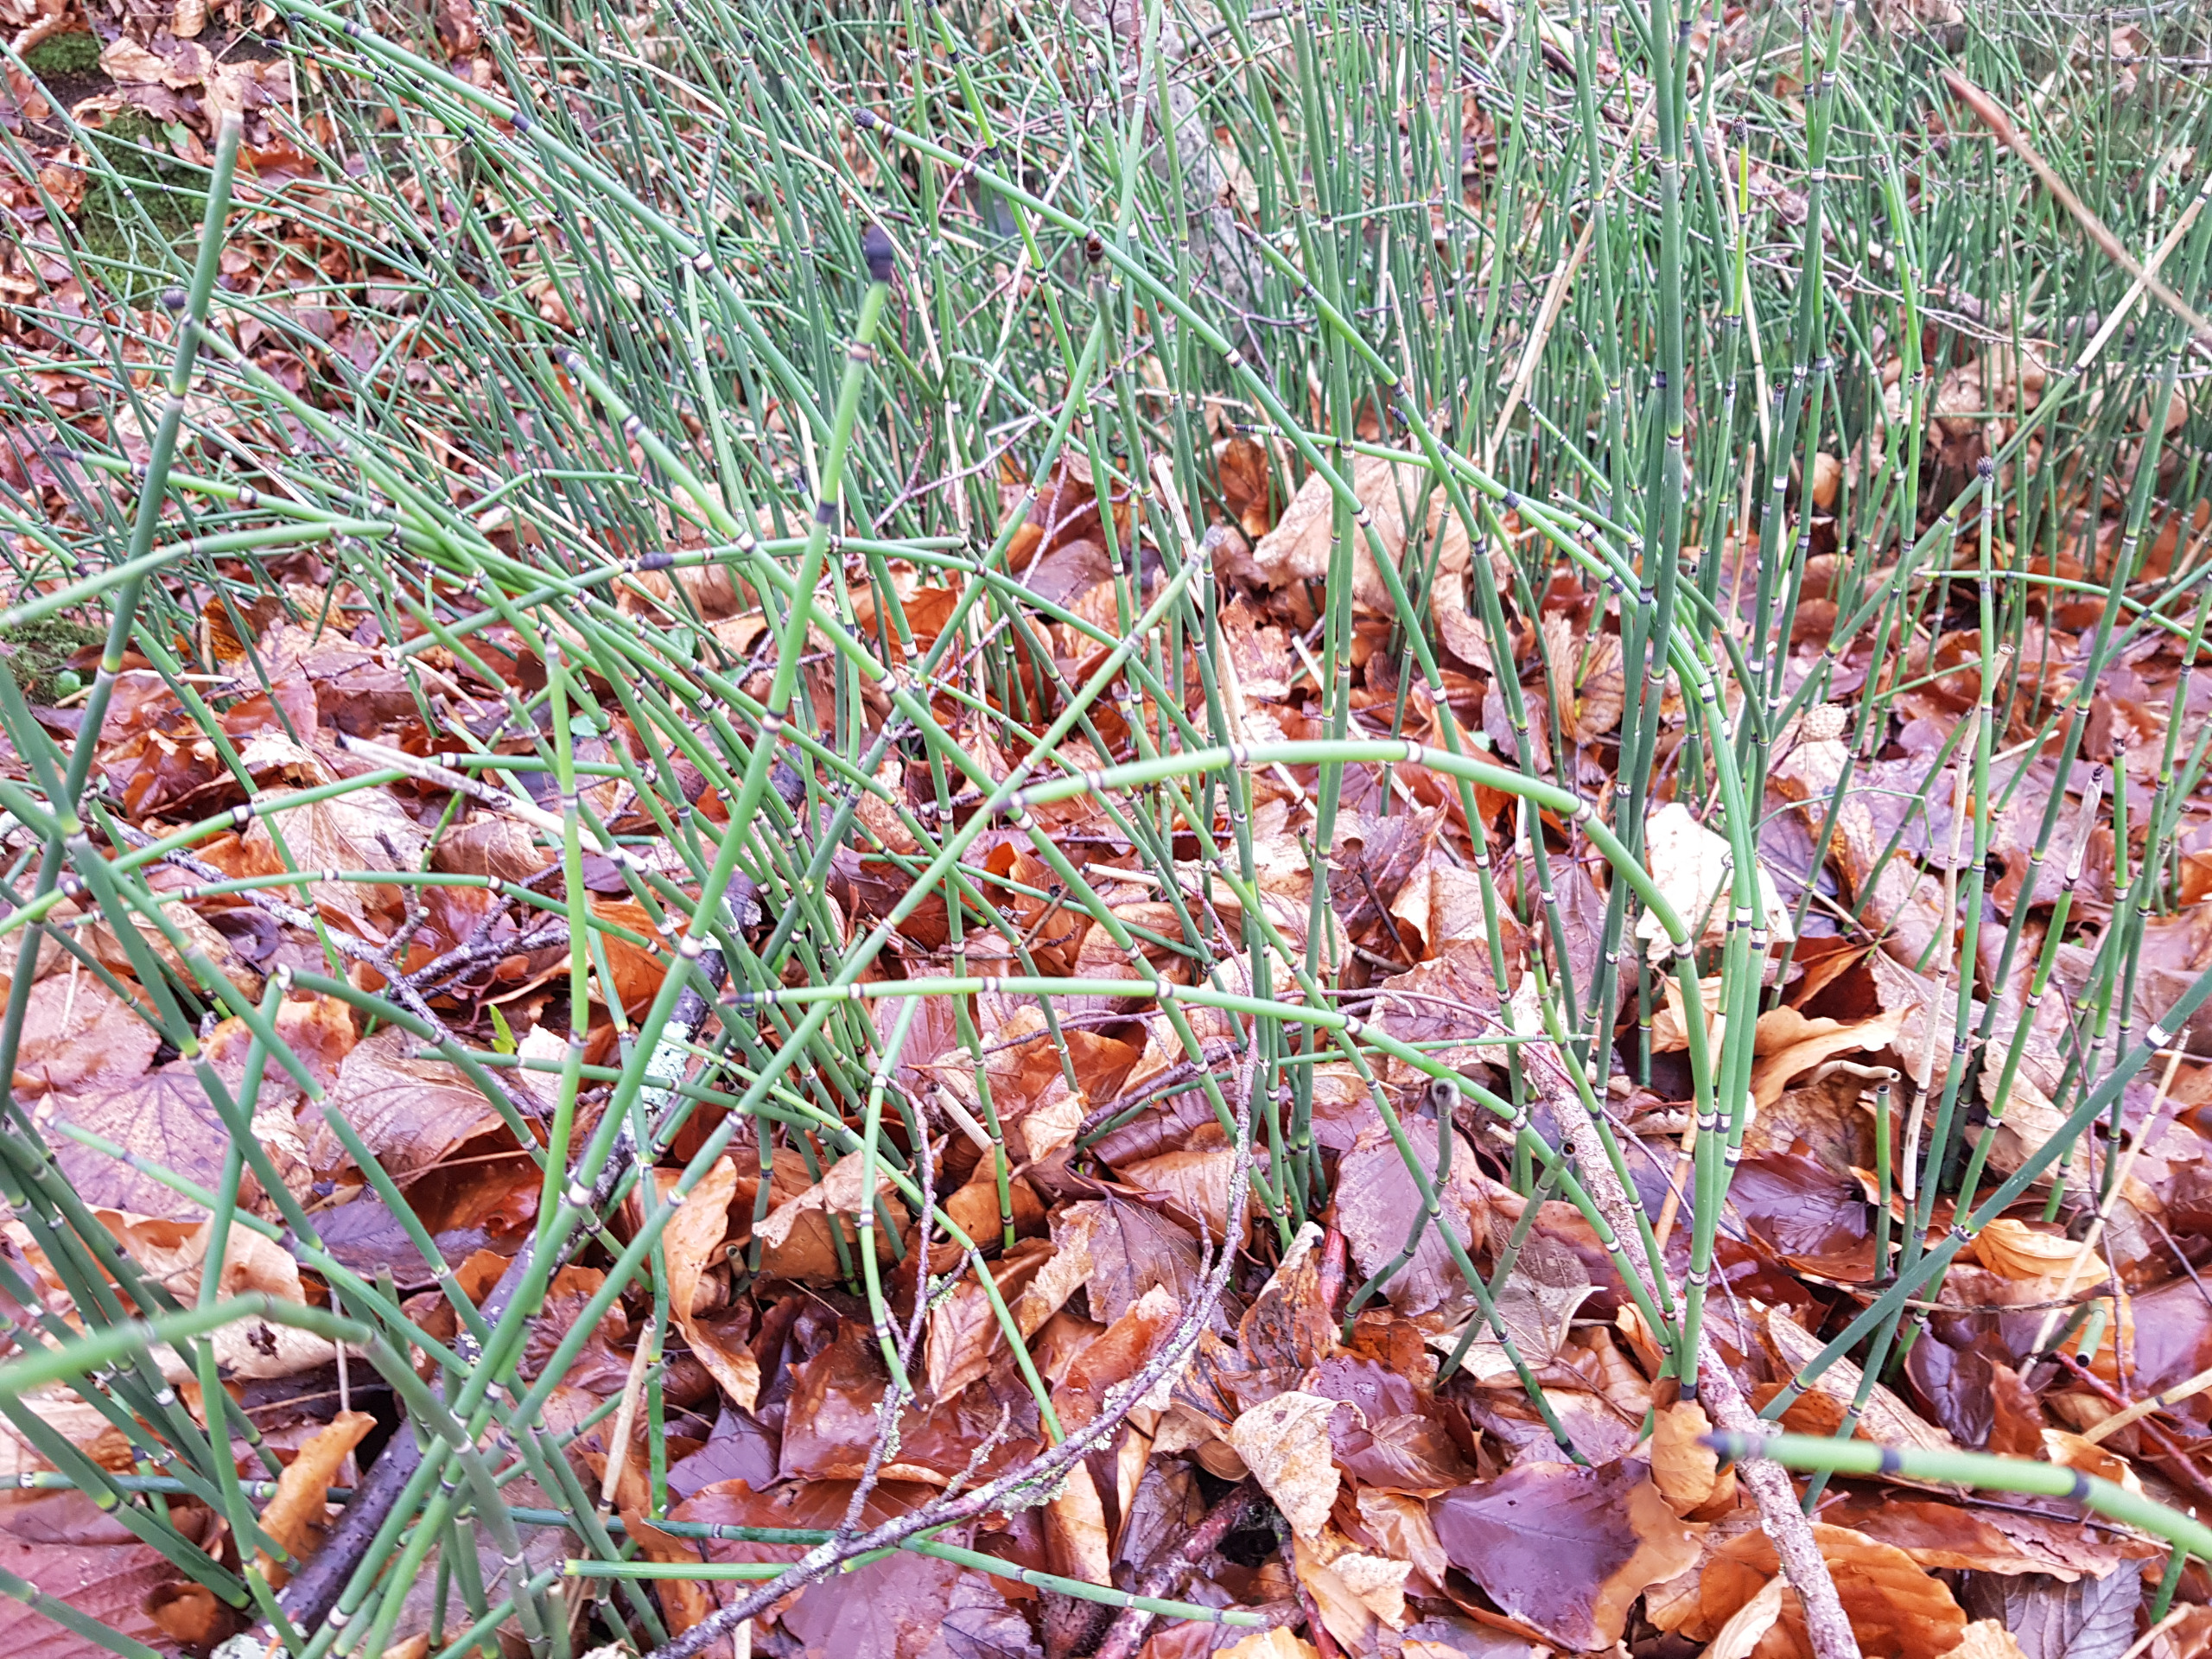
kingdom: Plantae
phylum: Tracheophyta
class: Polypodiopsida
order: Equisetales
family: Equisetaceae
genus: Equisetum
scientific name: Equisetum hyemale
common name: Skavgræs
